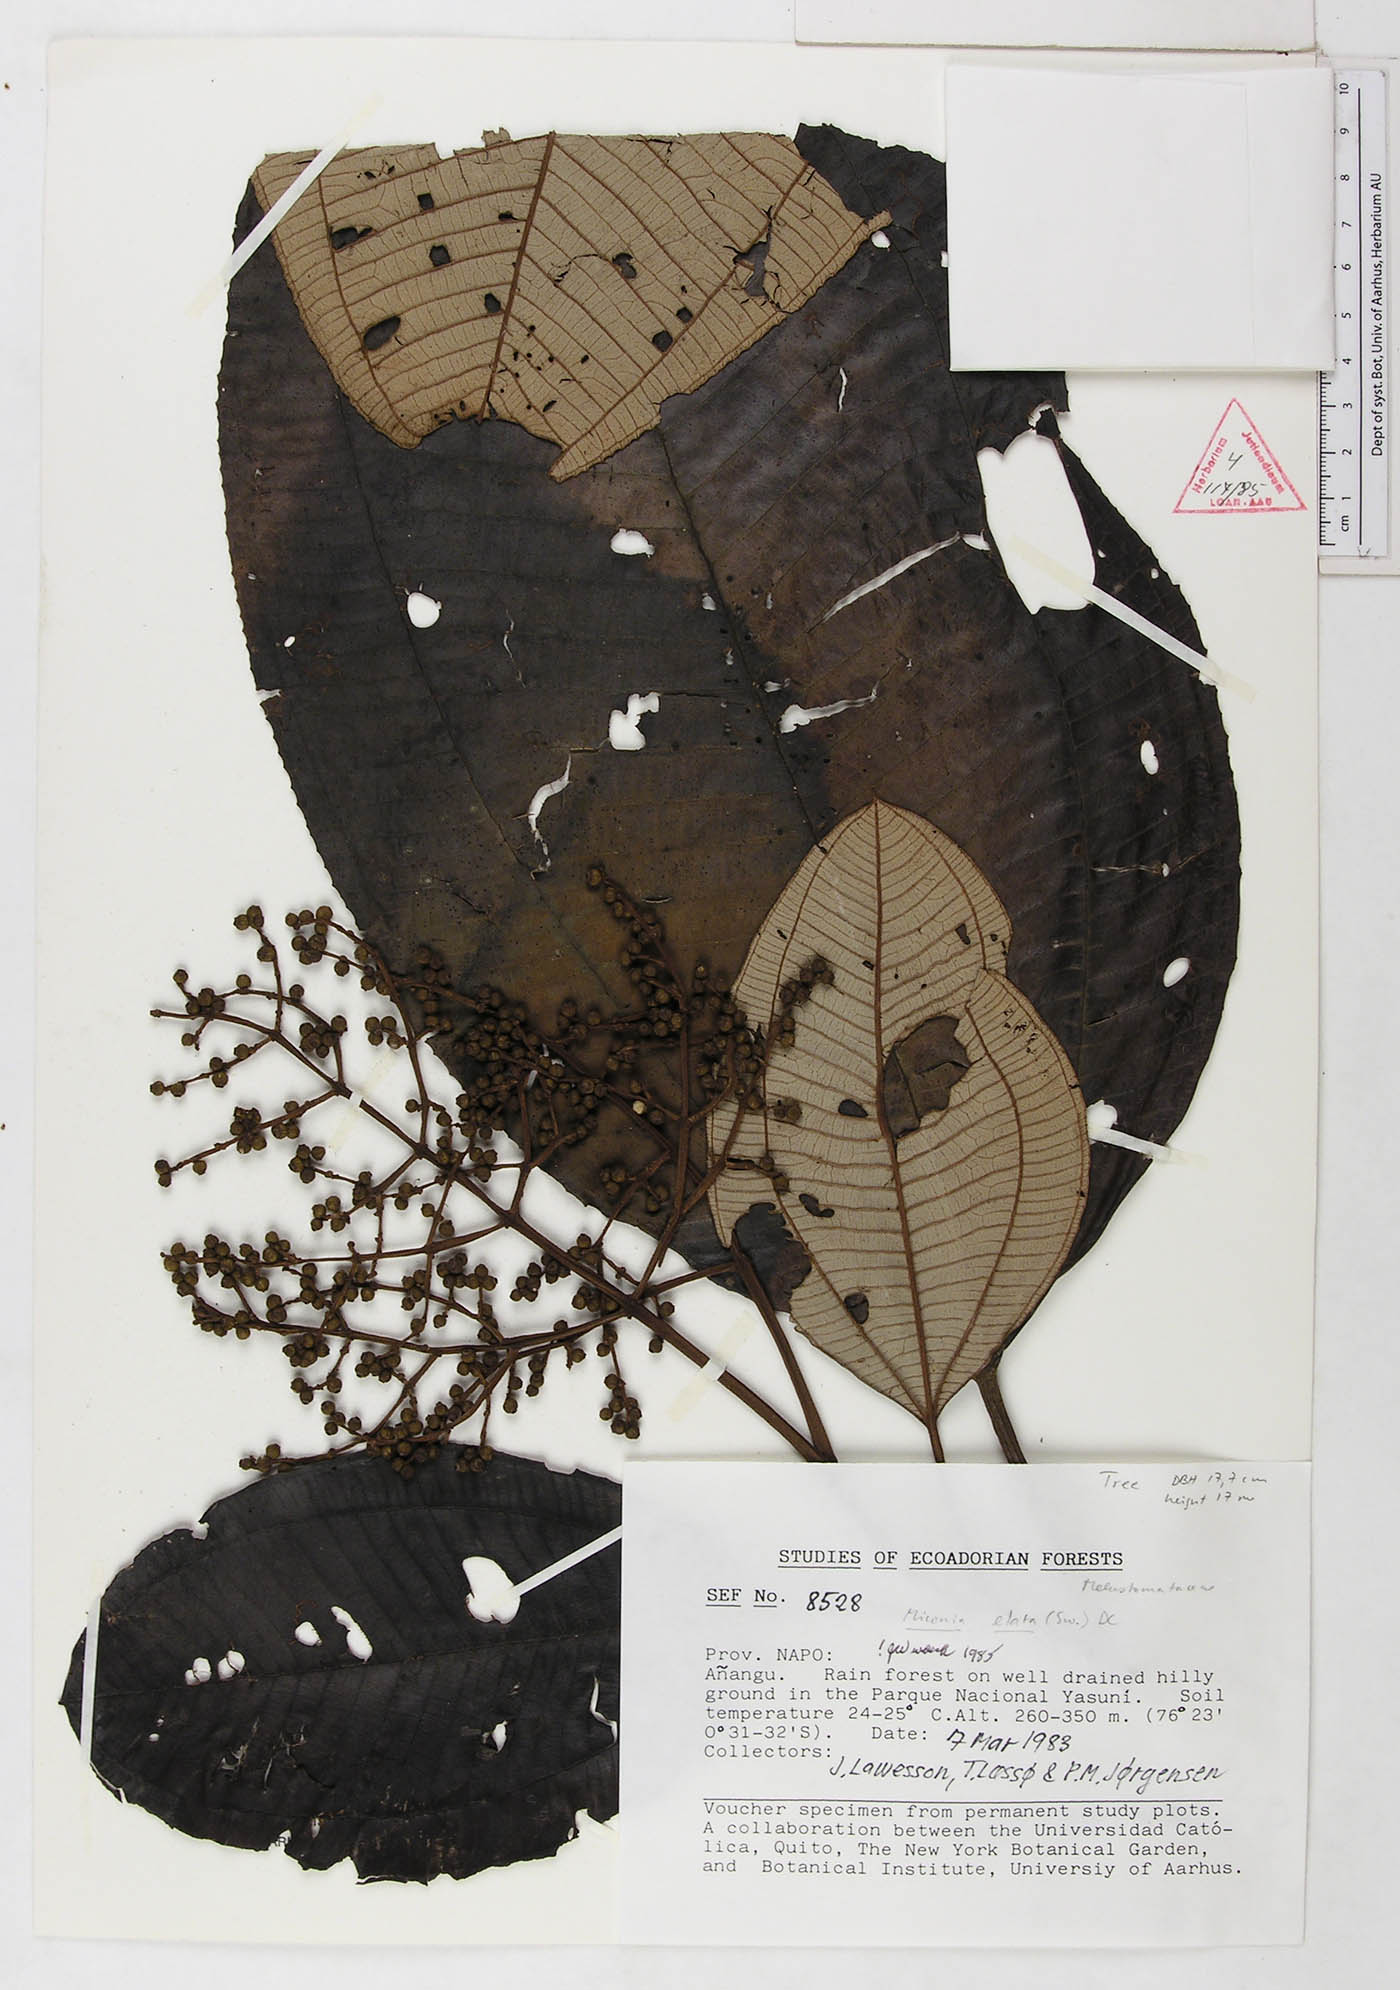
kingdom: Plantae
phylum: Tracheophyta
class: Magnoliopsida
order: Myrtales
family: Melastomataceae
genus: Miconia
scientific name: Miconia elata
